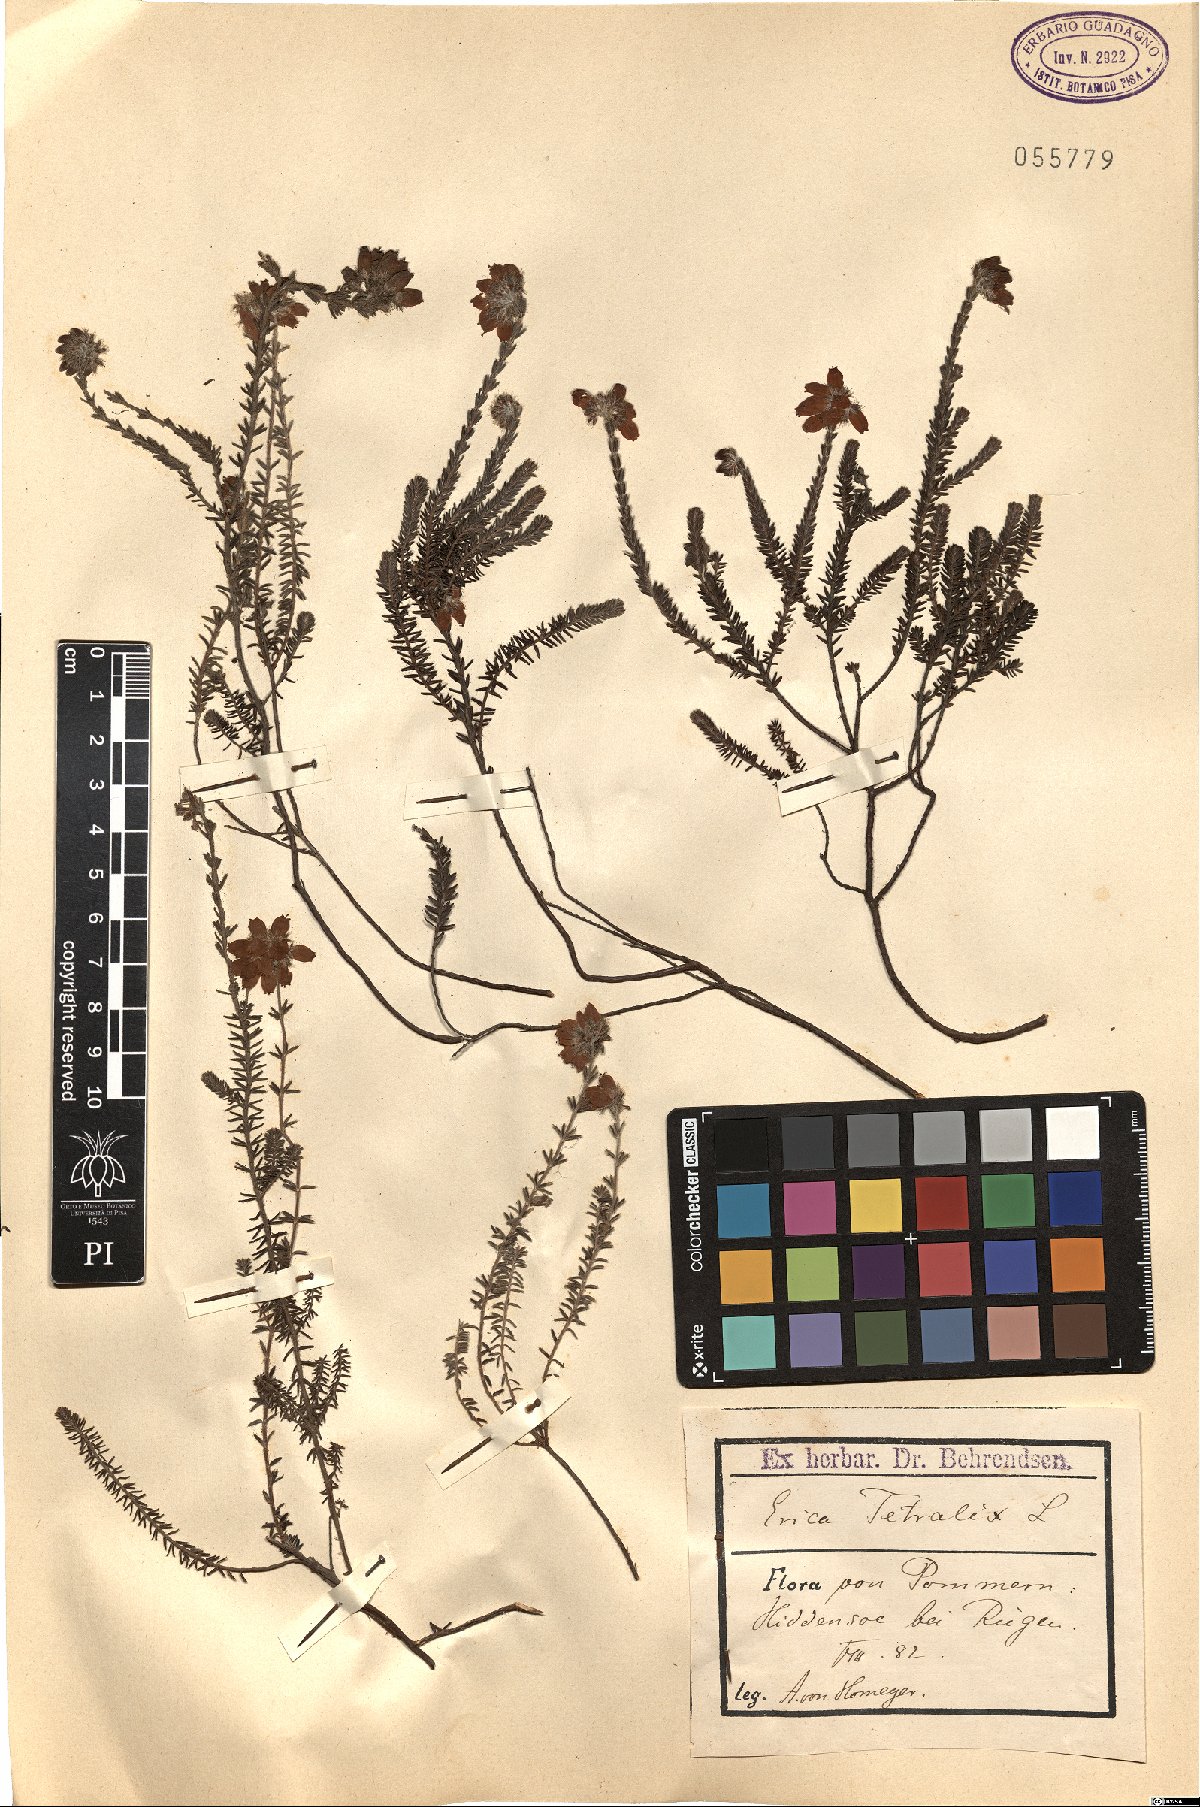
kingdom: Plantae
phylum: Tracheophyta
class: Magnoliopsida
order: Ericales
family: Ericaceae
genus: Erica
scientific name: Erica tetralix
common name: Cross-leaved heath
